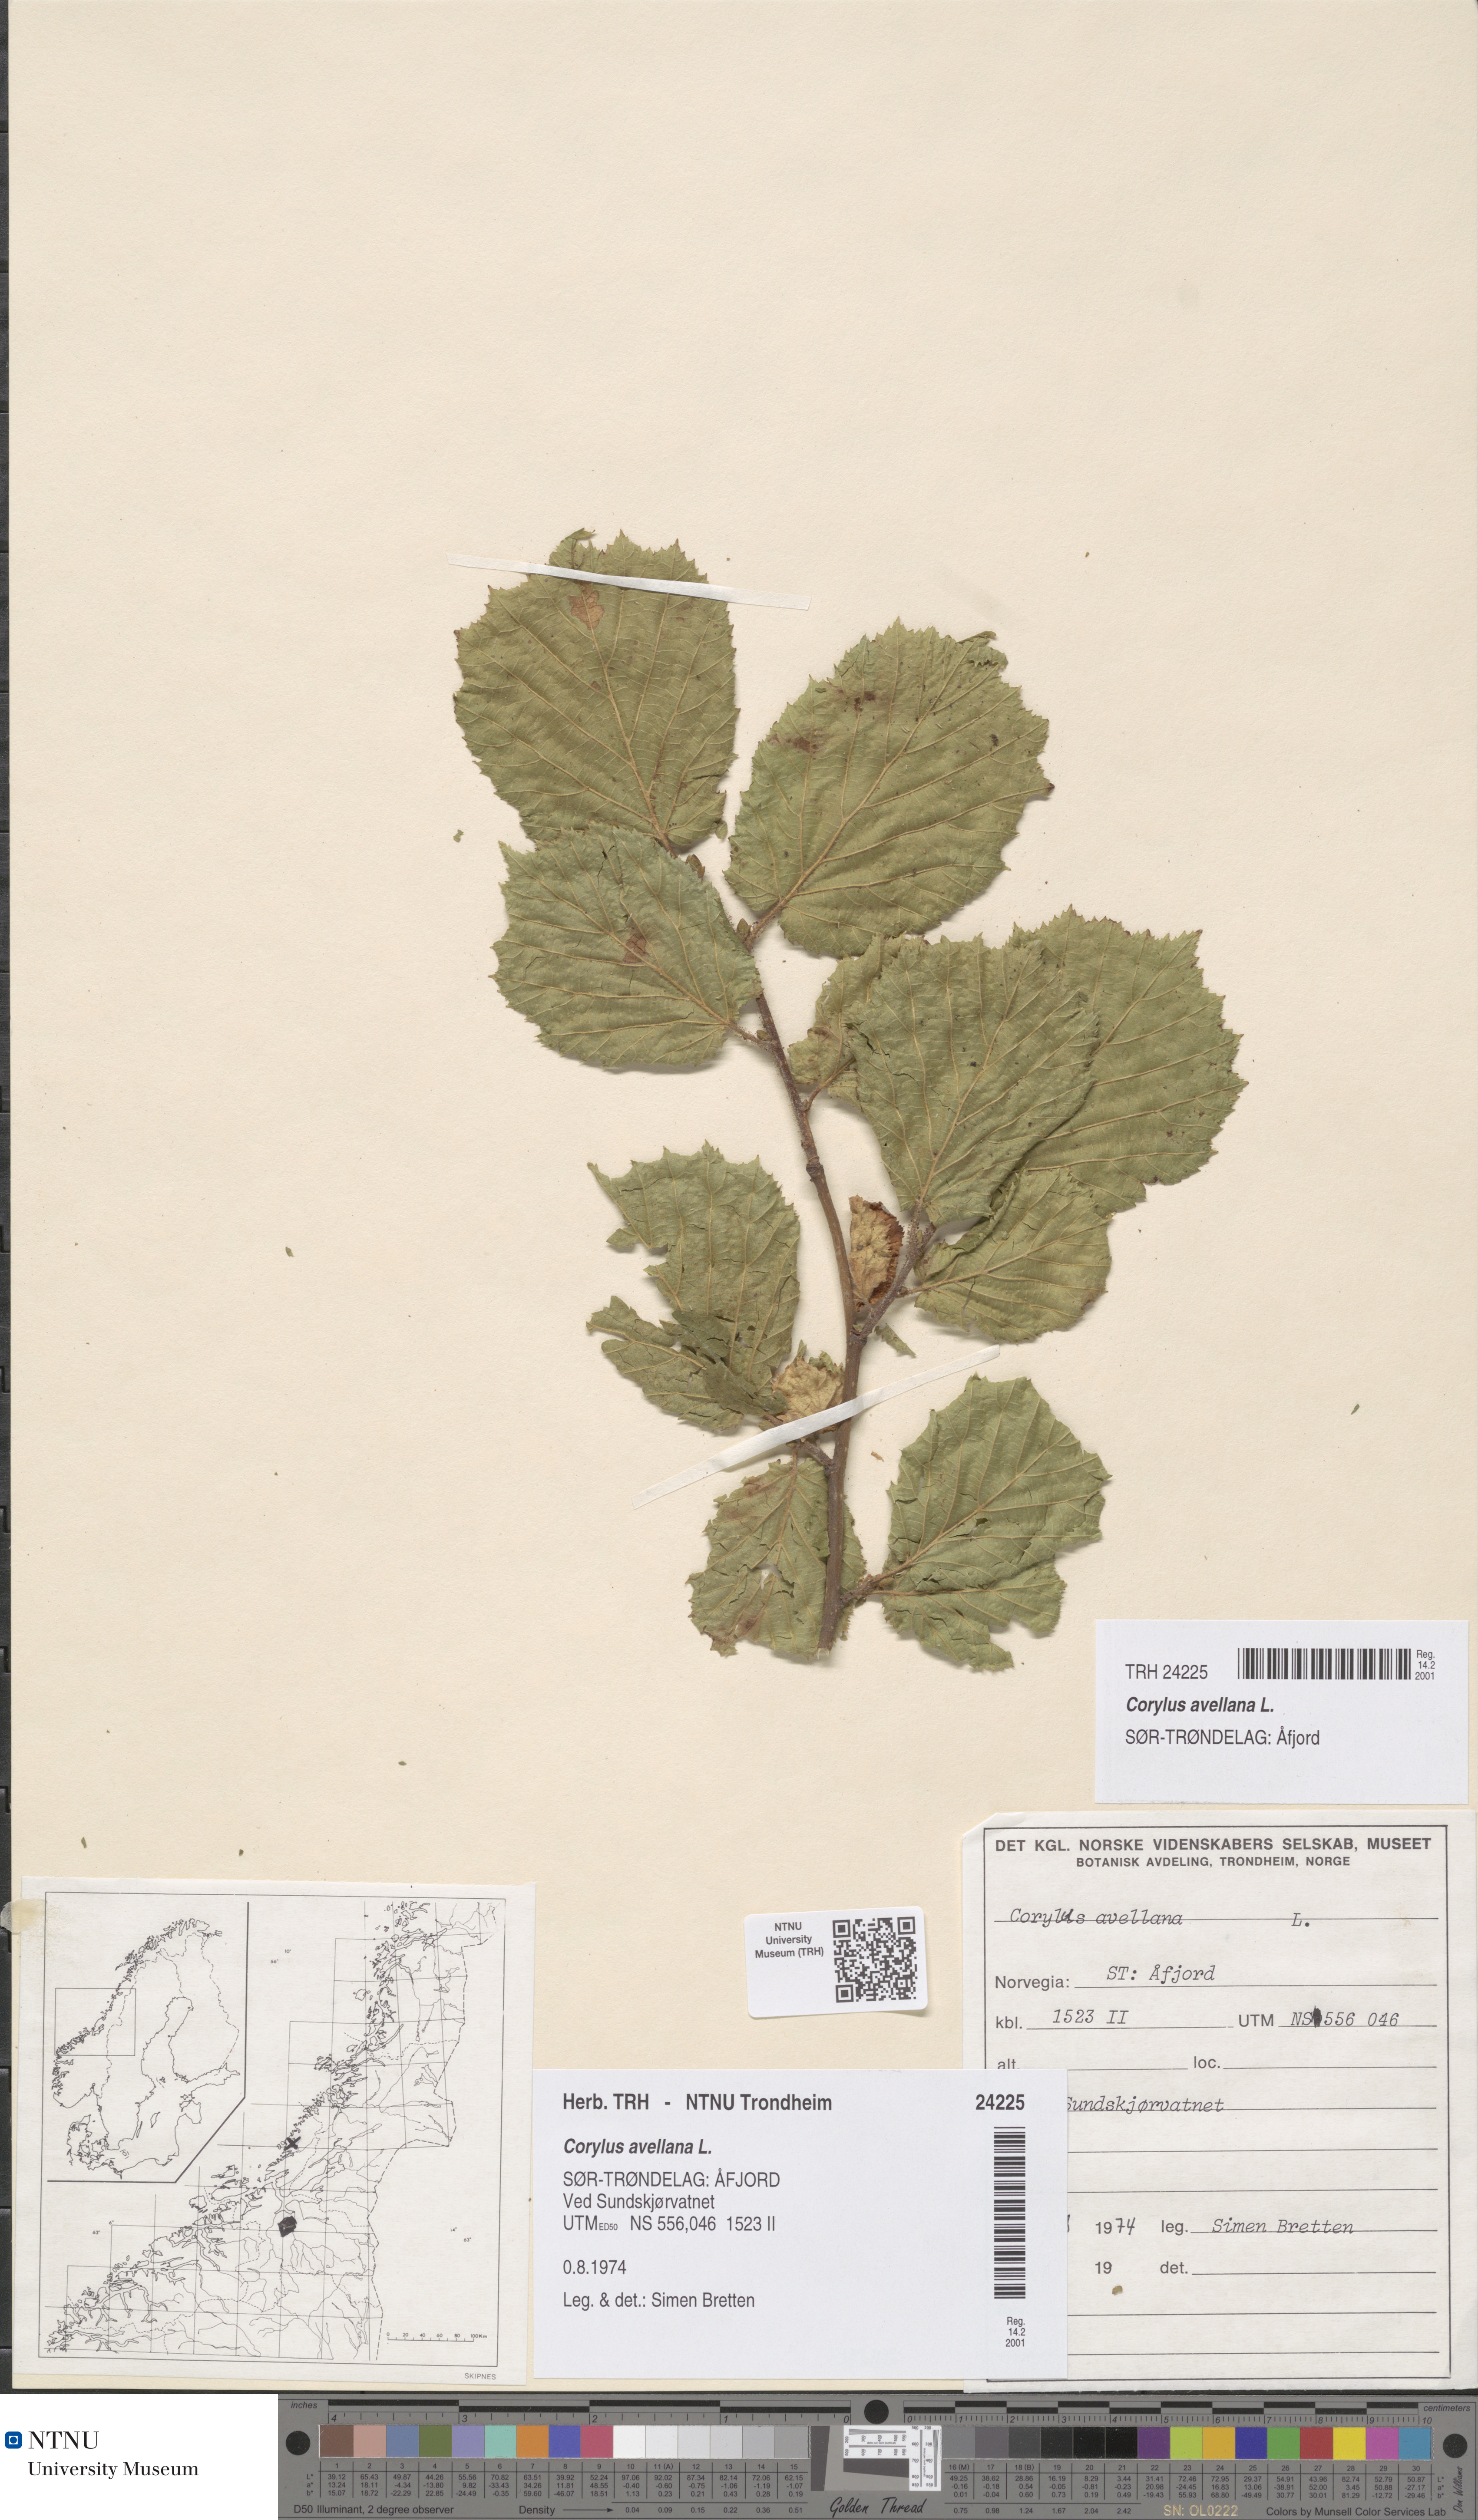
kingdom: Plantae
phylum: Tracheophyta
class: Magnoliopsida
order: Fagales
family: Betulaceae
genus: Corylus
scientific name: Corylus avellana
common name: European hazel
